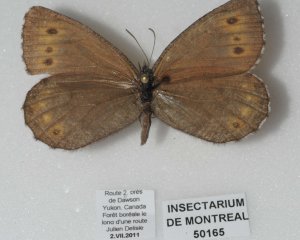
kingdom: Animalia
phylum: Arthropoda
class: Insecta
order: Lepidoptera
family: Nymphalidae
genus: Oeneis
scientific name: Oeneis jutta
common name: Jutta Arctic
